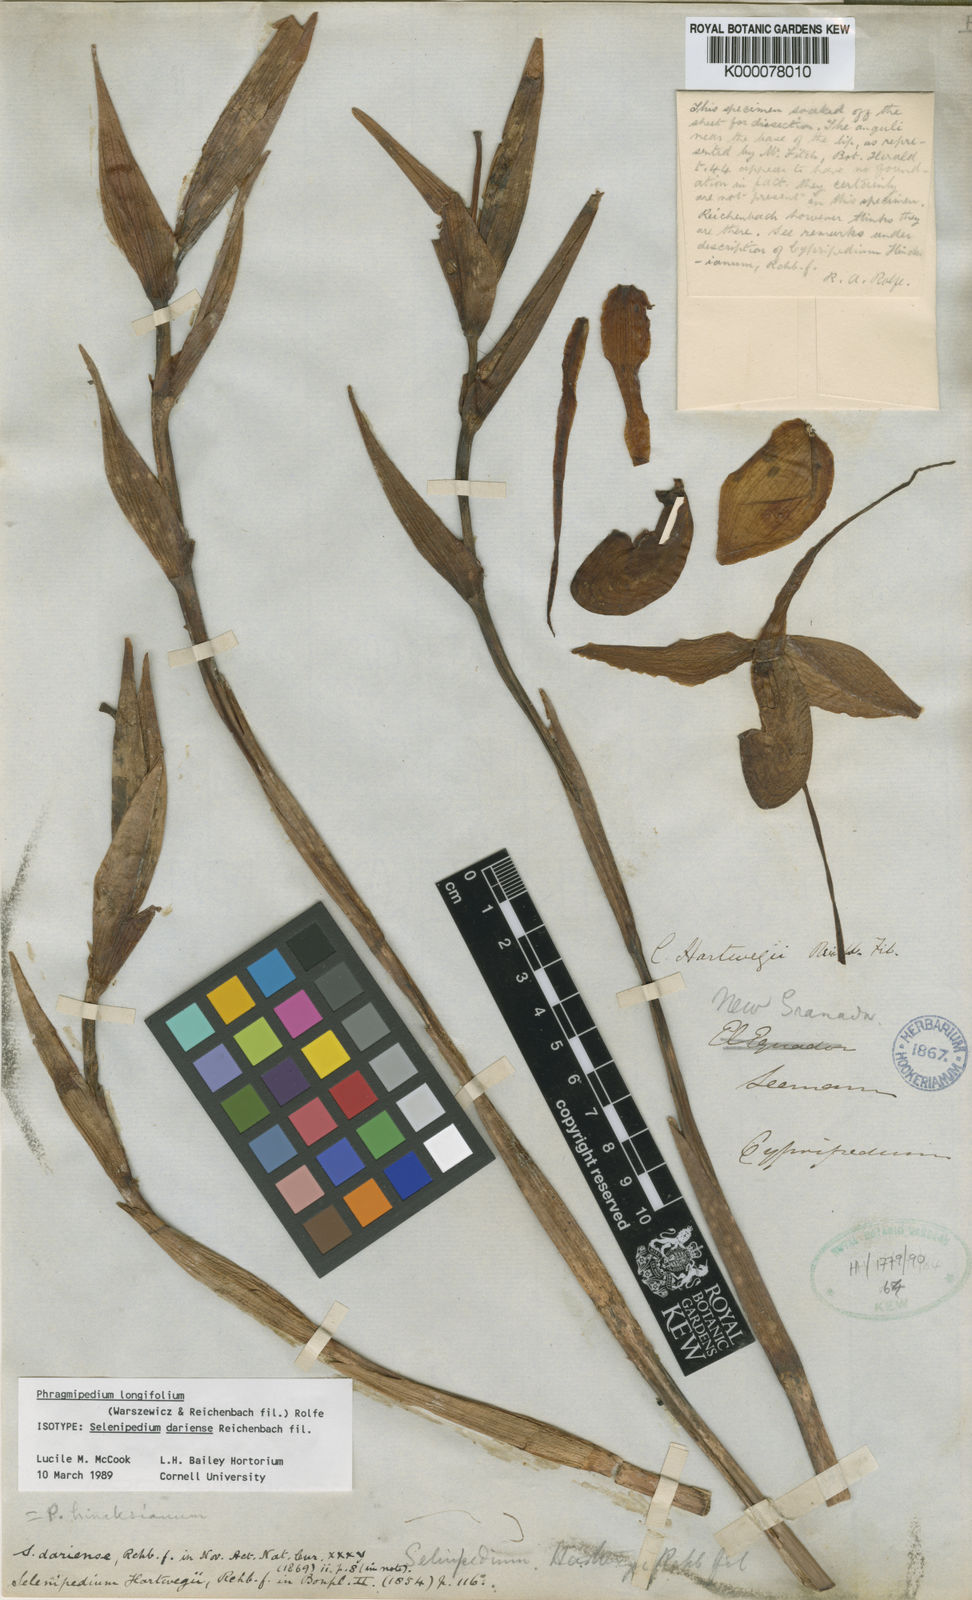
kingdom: Plantae
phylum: Tracheophyta
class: Liliopsida
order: Asparagales
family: Orchidaceae
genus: Phragmipedium
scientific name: Phragmipedium longifolium
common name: Long-leaf phragmipedium
